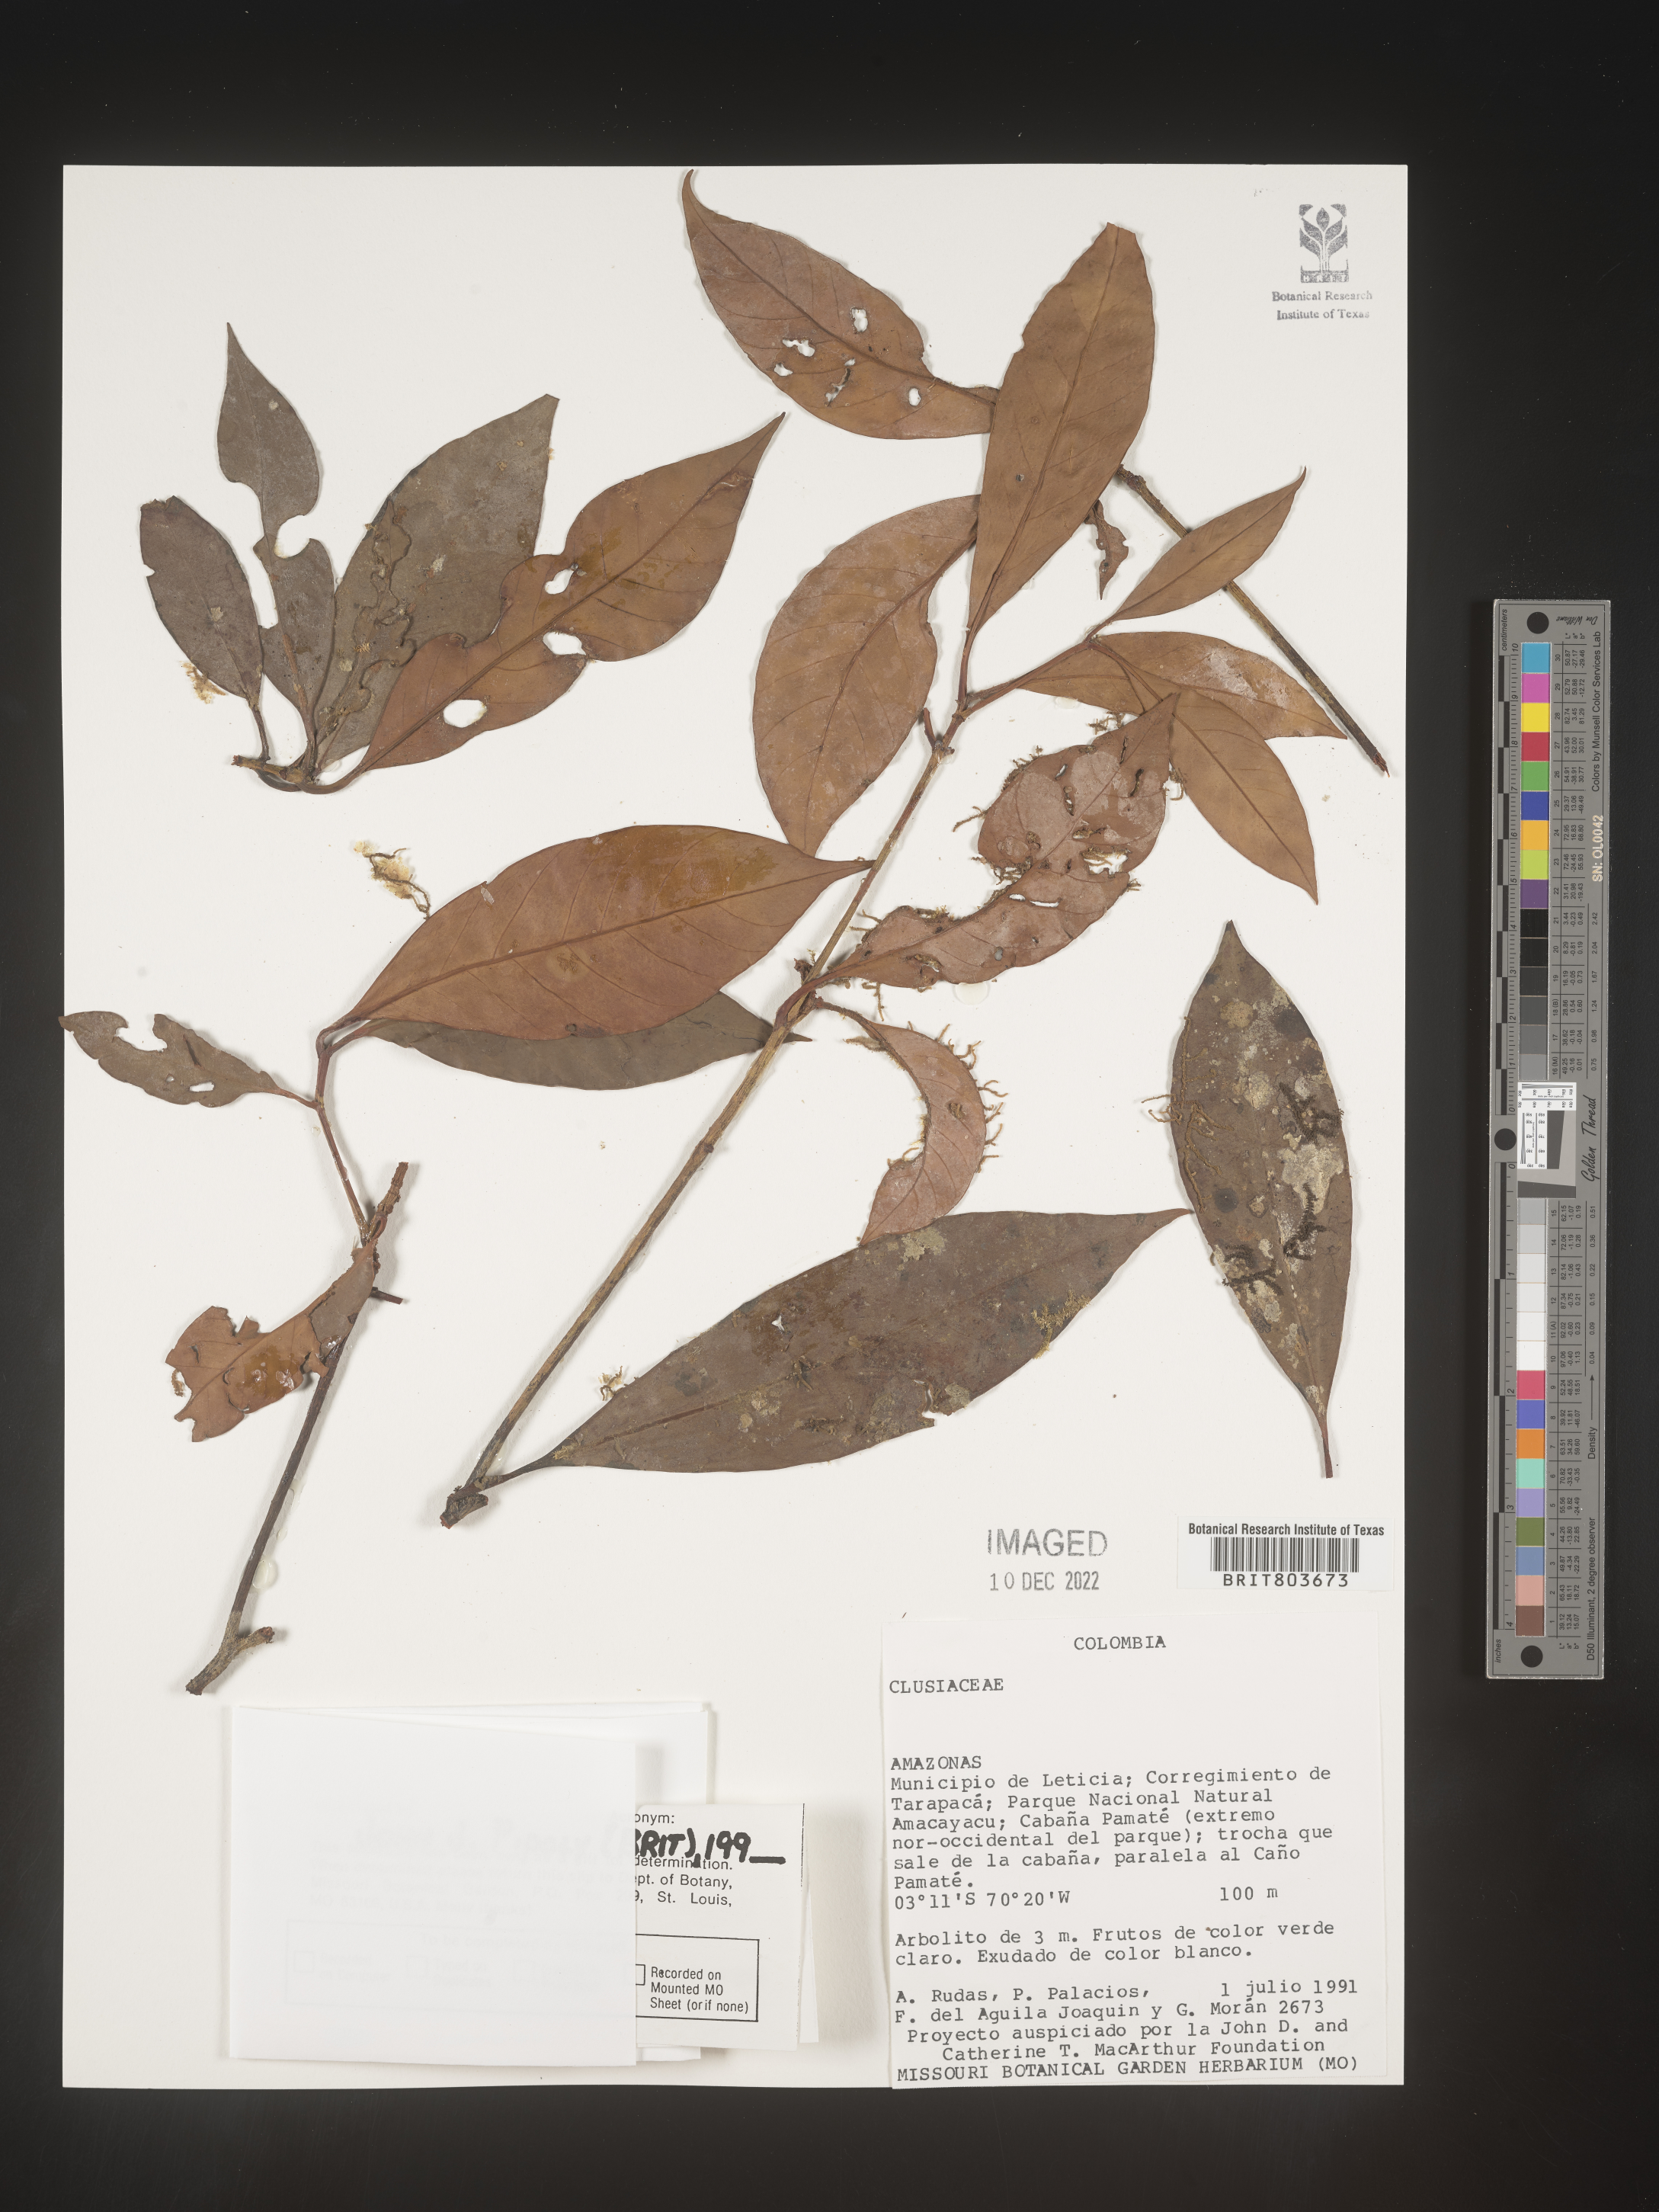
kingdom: Plantae
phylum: Tracheophyta
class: Magnoliopsida
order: Malpighiales
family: Clusiaceae
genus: Tovomita
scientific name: Tovomita
